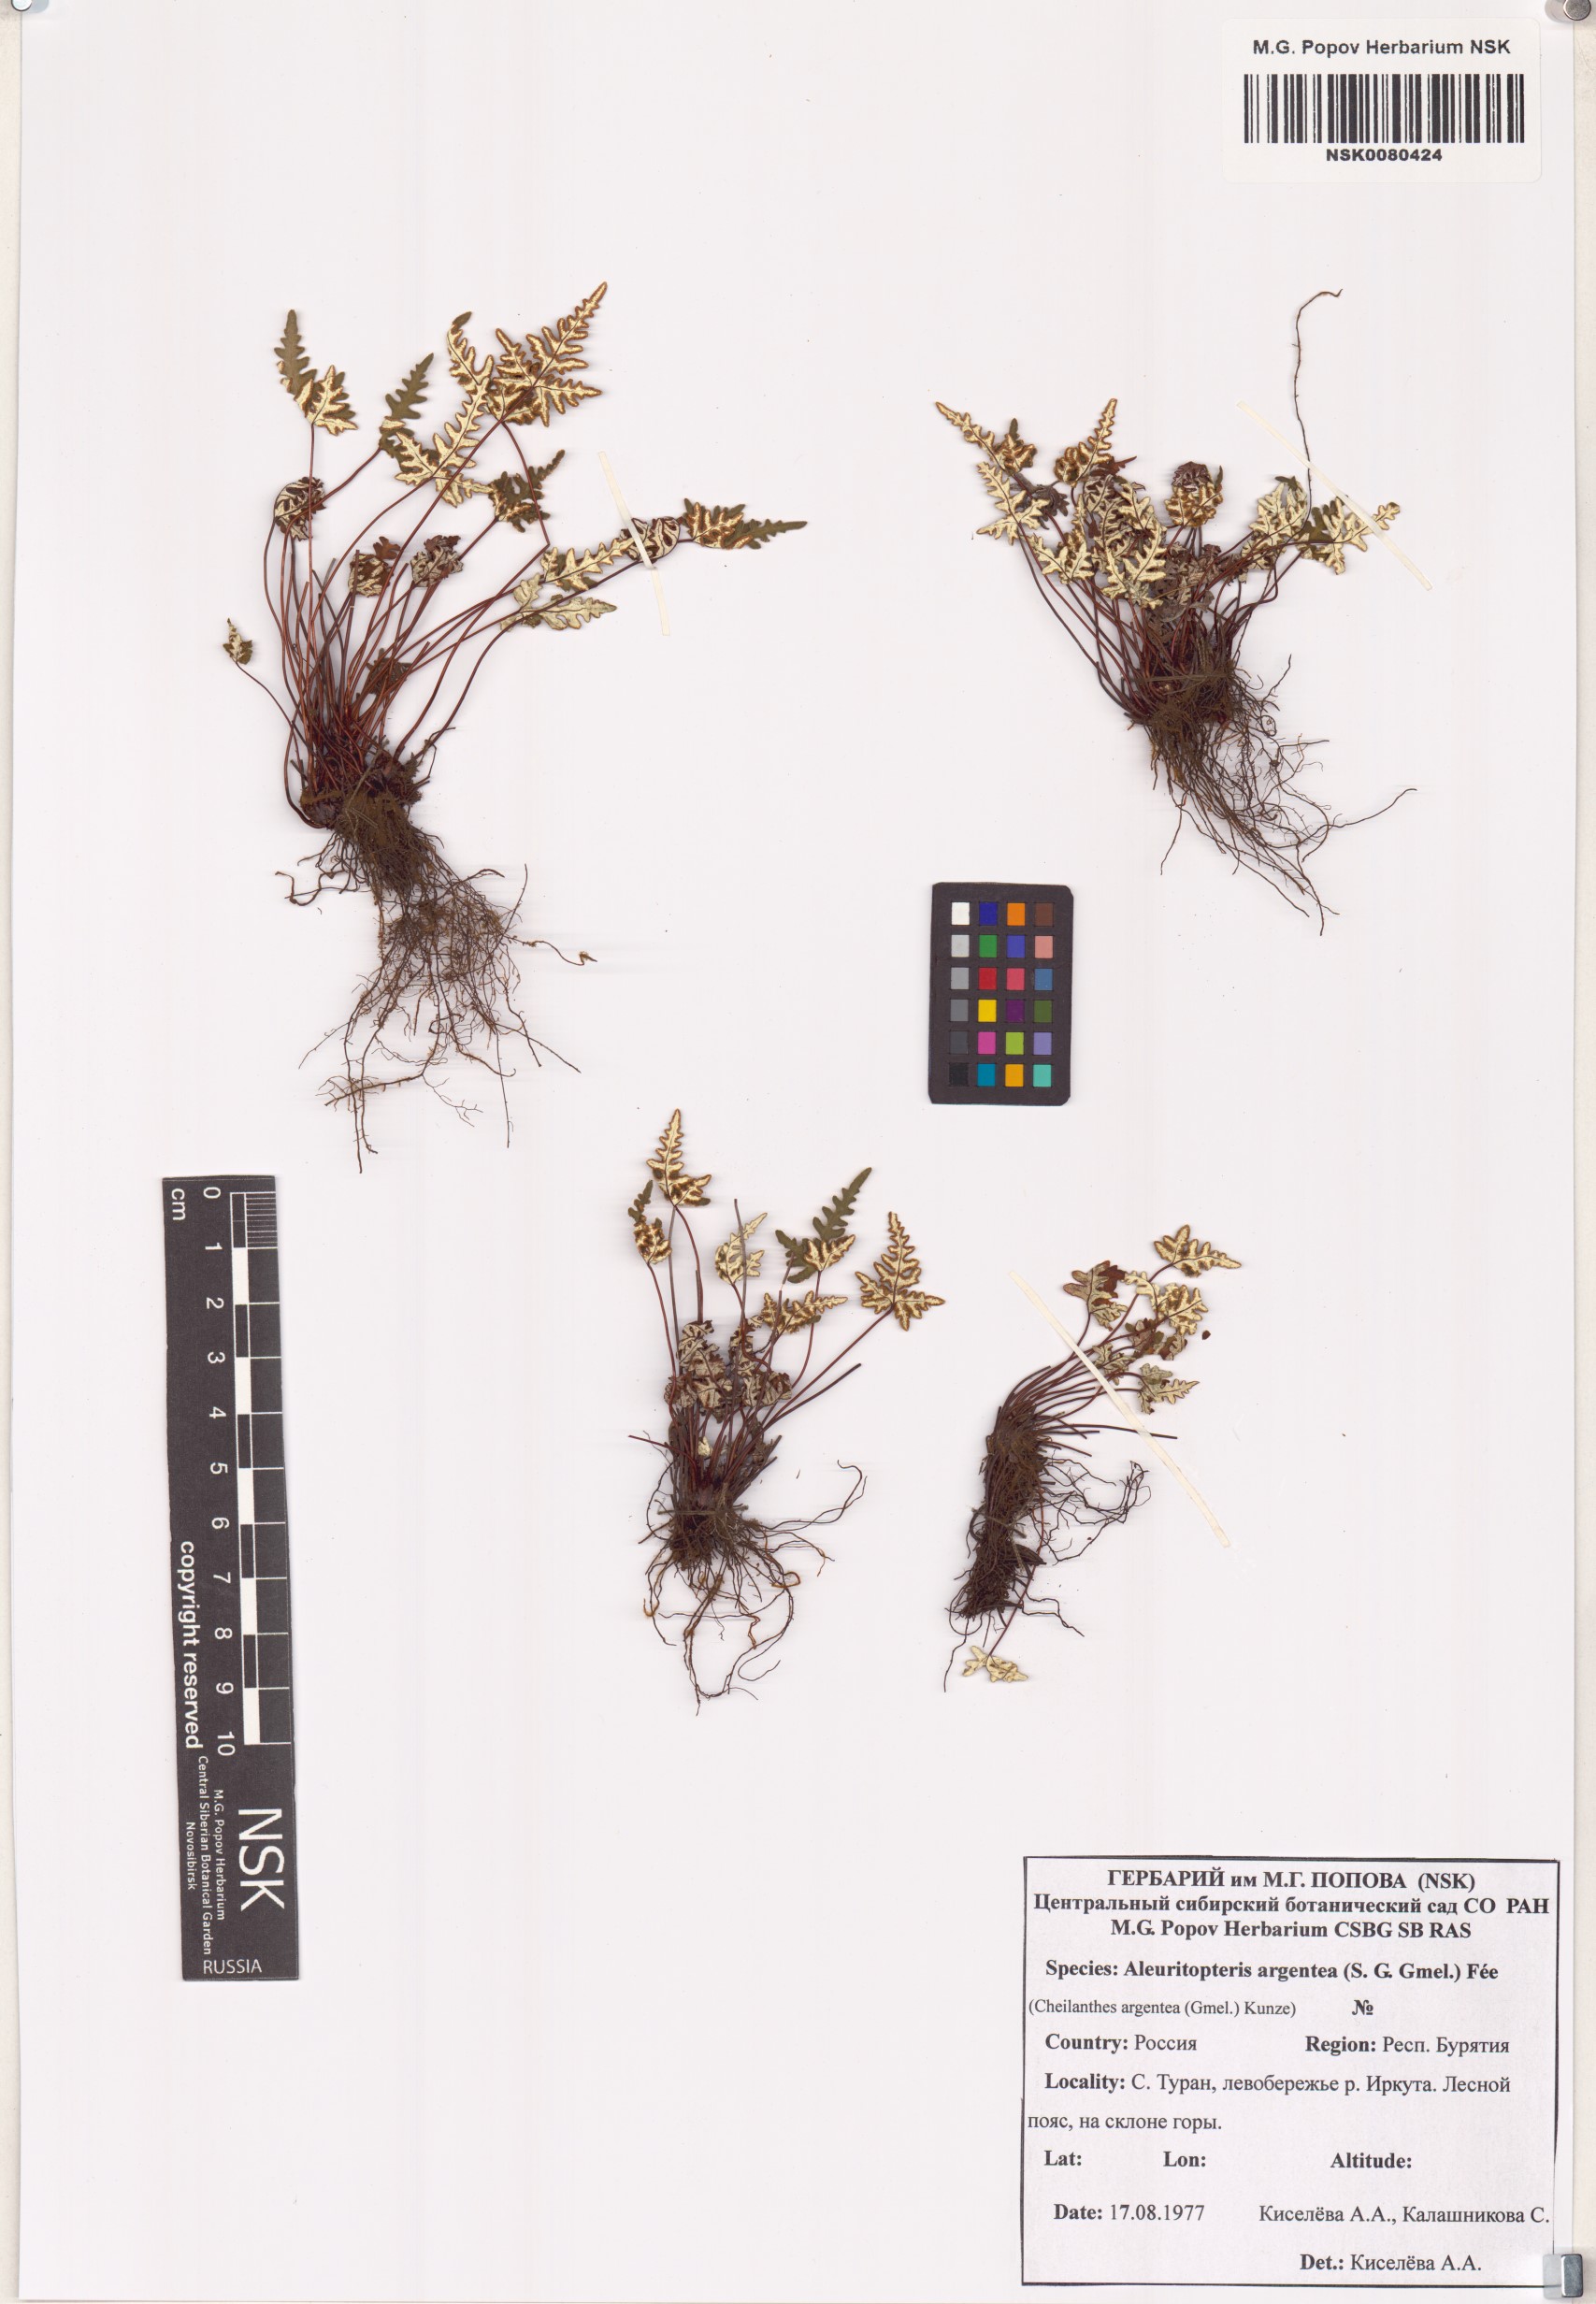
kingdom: Plantae
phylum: Tracheophyta
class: Polypodiopsida
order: Polypodiales
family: Pteridaceae
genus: Aleuritopteris
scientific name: Aleuritopteris argentea
